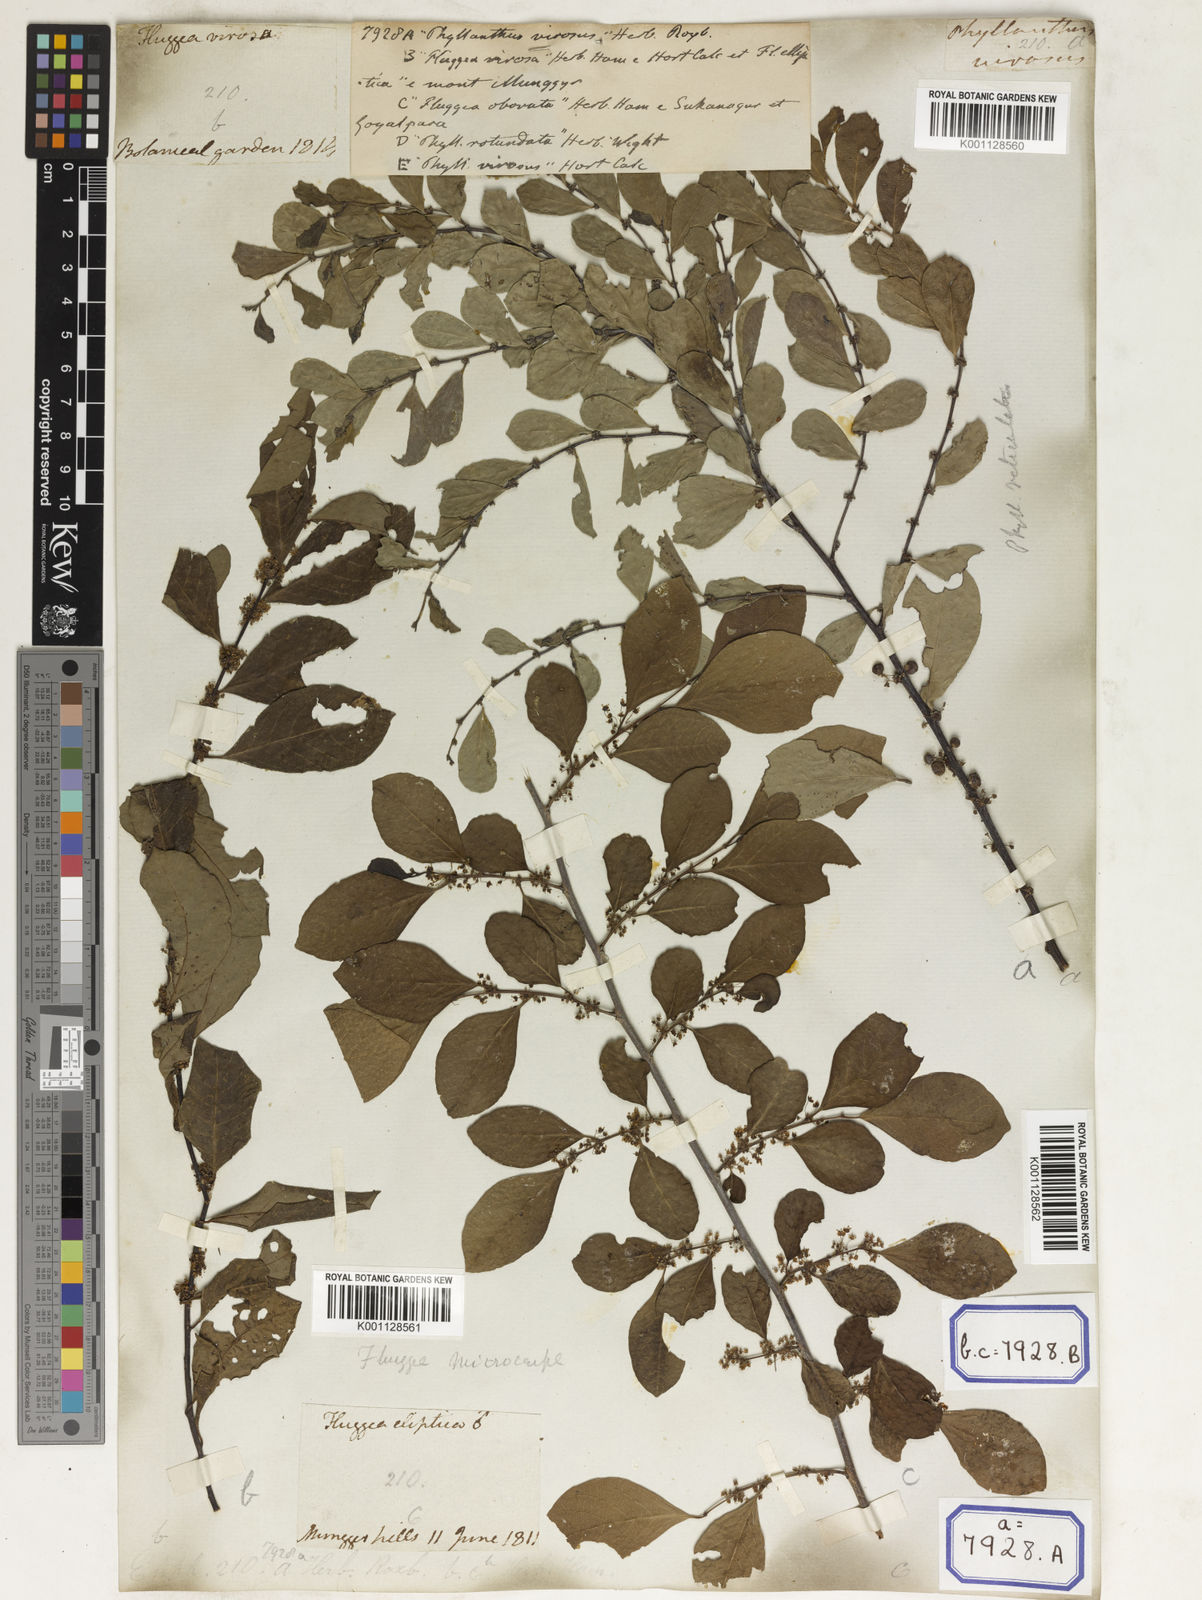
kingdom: Plantae
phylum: Tracheophyta
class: Magnoliopsida
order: Malpighiales
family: Euphorbiaceae
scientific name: Euphorbiaceae
